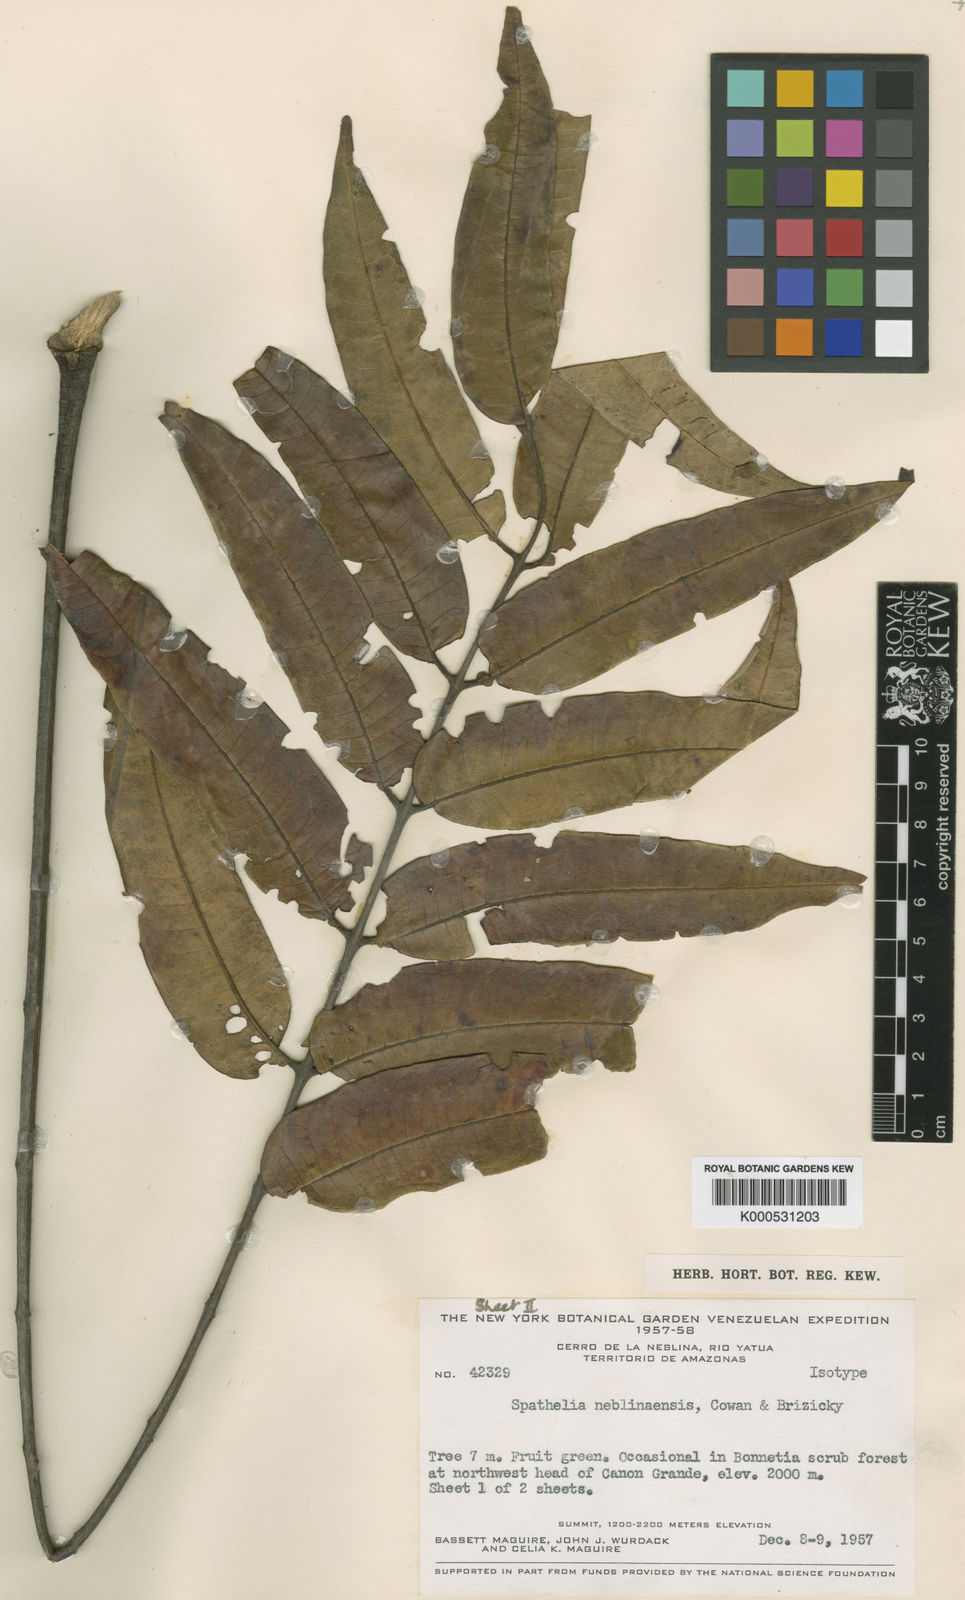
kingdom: Plantae
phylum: Tracheophyta
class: Magnoliopsida
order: Sapindales
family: Rutaceae
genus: Spathelia
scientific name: Spathelia
